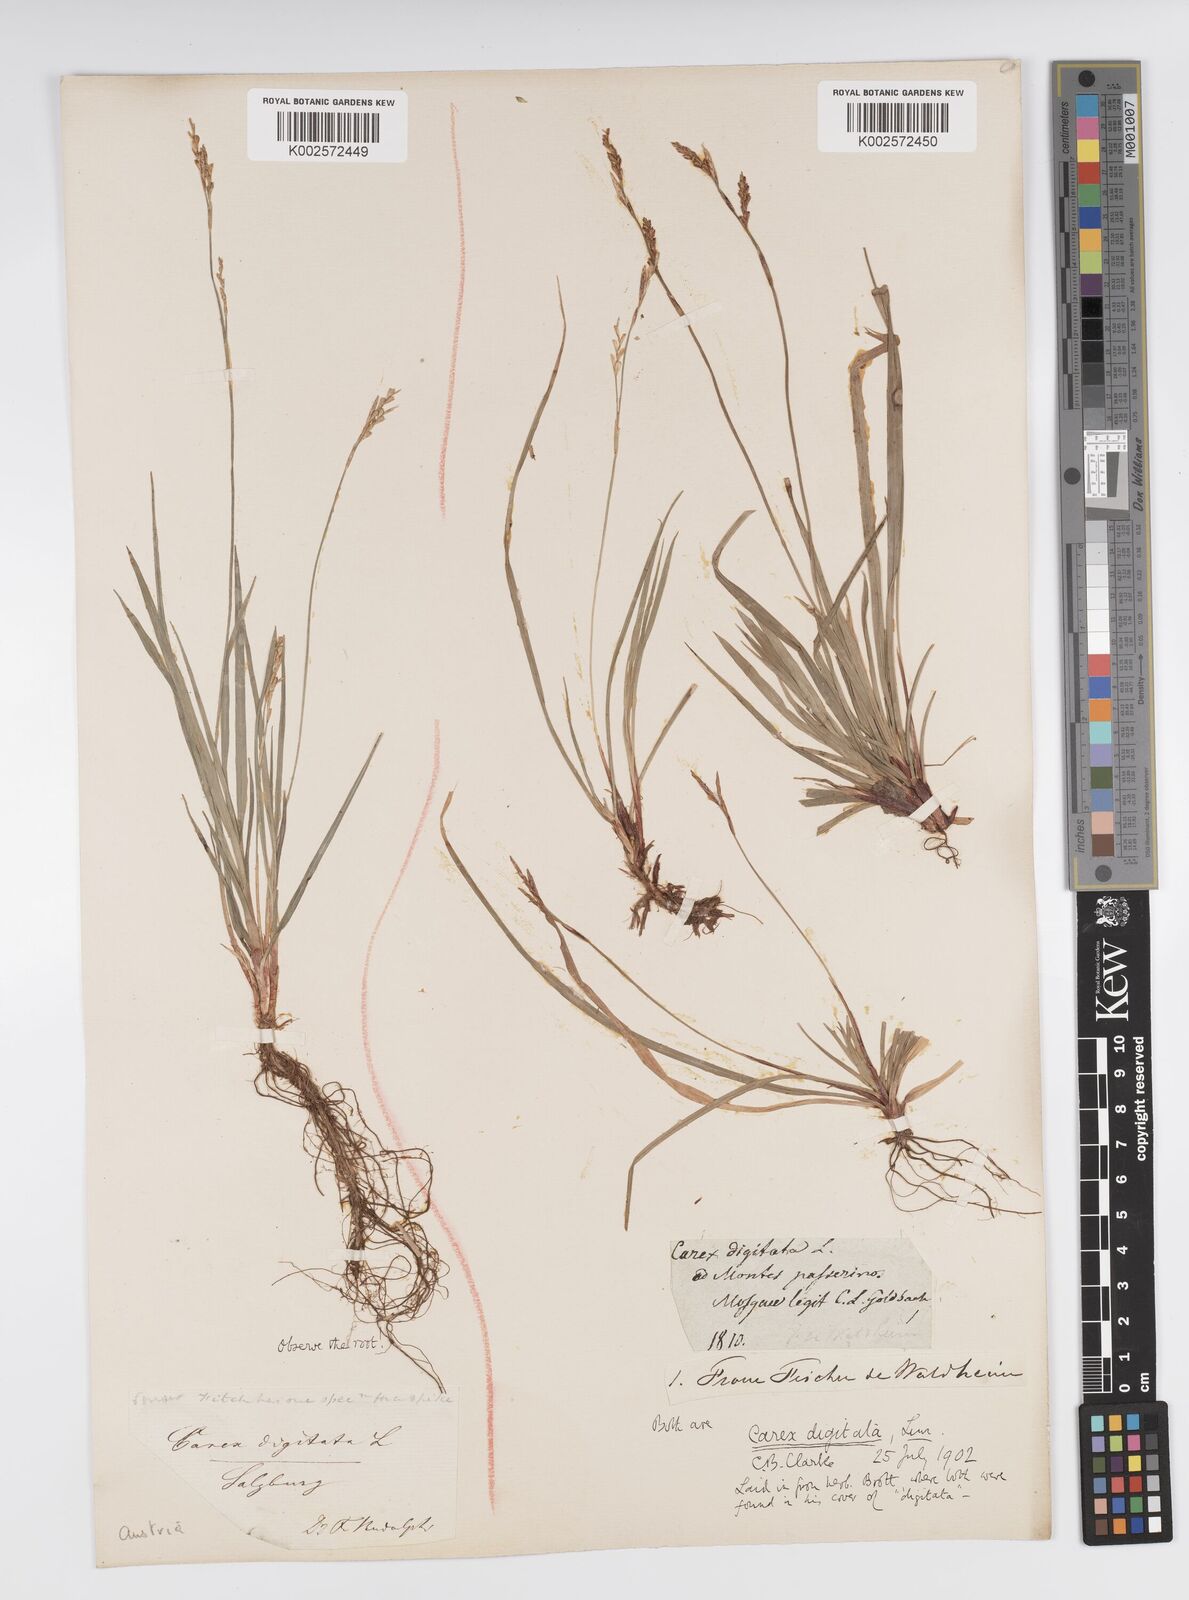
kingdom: Plantae
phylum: Tracheophyta
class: Liliopsida
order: Poales
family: Cyperaceae
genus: Carex
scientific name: Carex digitata
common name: Fingered sedge
